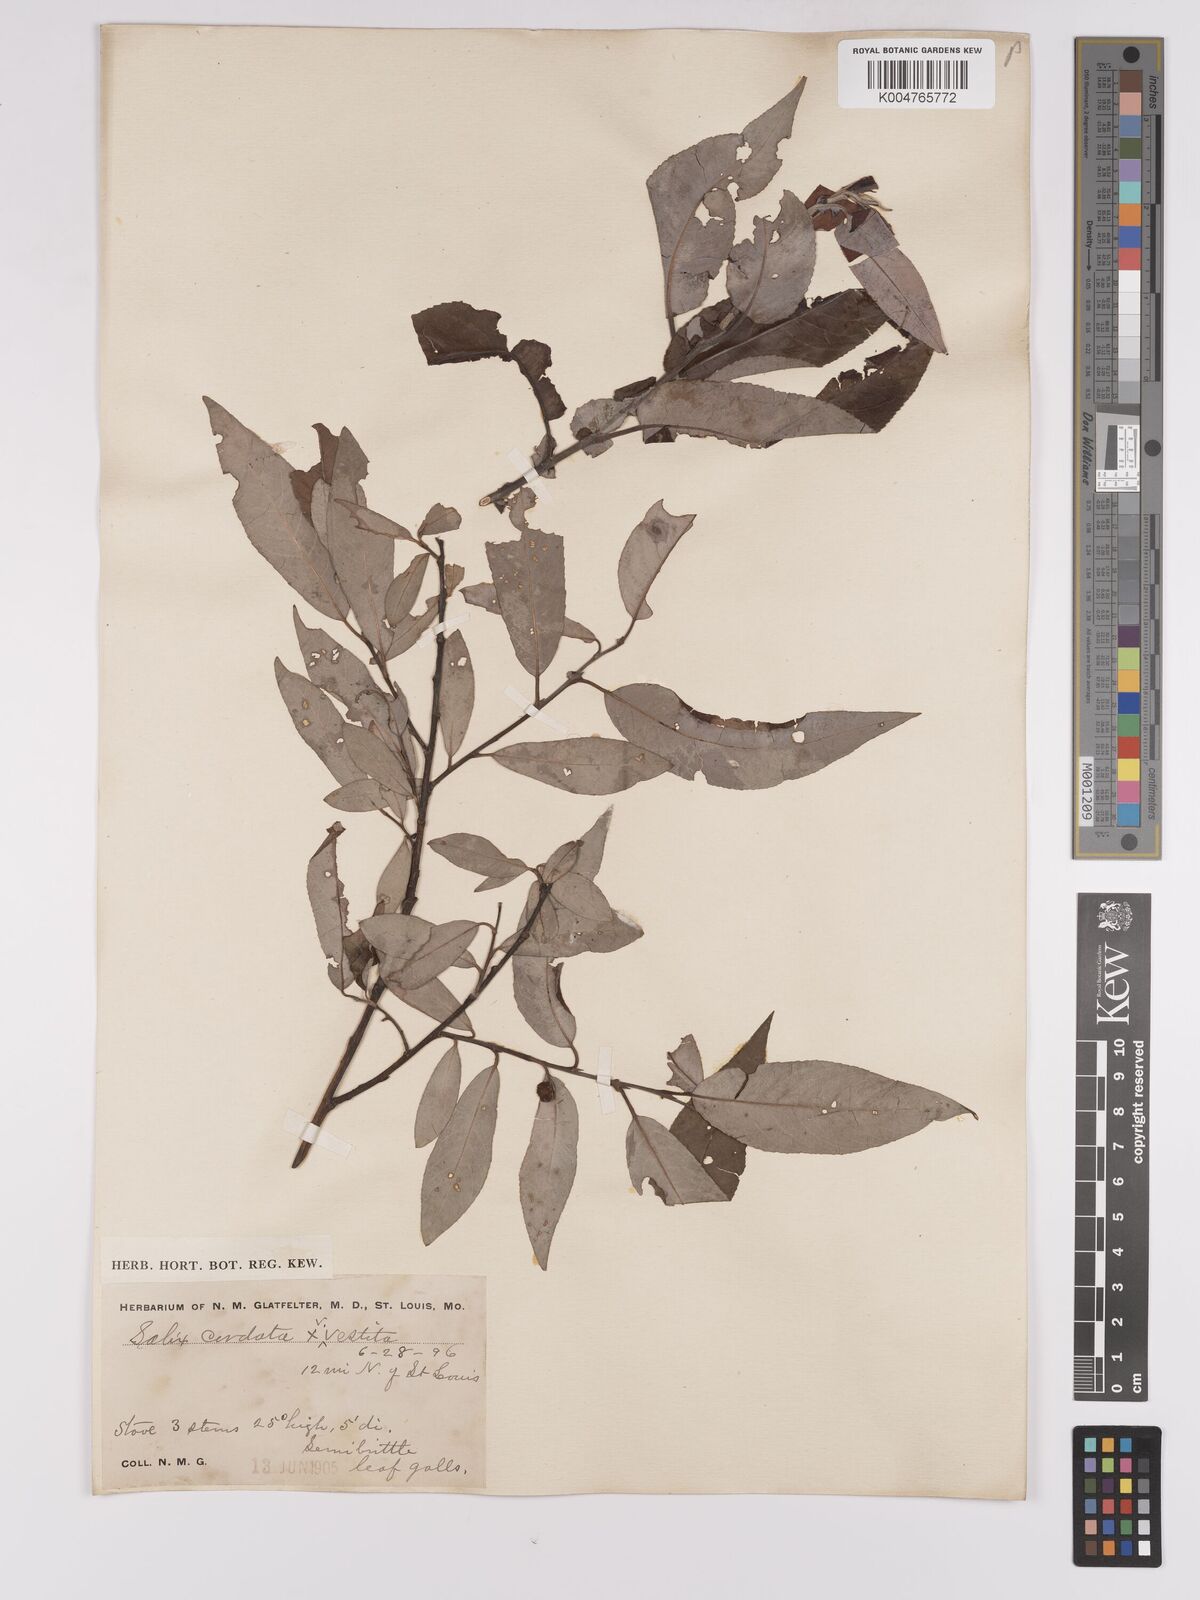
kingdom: Plantae
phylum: Tracheophyta
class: Magnoliopsida
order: Malpighiales
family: Salicaceae
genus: Salix
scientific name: Salix cordata
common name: Heart-leaf willow
